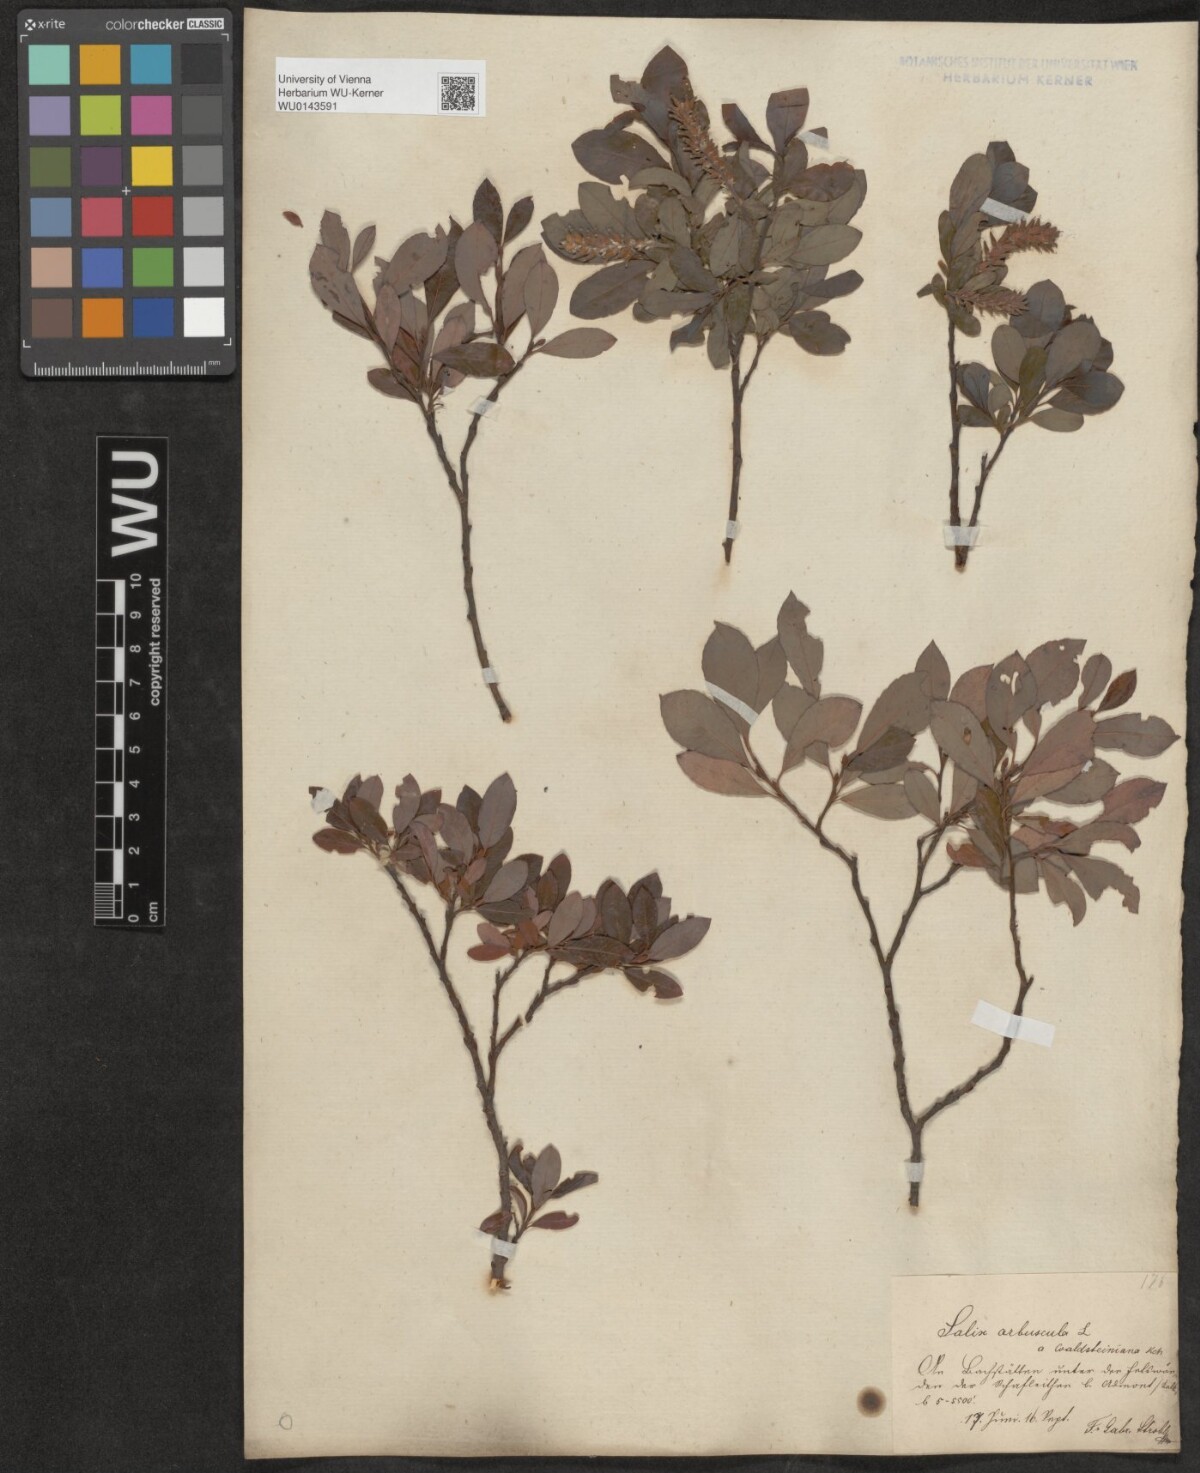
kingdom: Plantae
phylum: Tracheophyta
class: Magnoliopsida
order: Malpighiales
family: Salicaceae
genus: Salix
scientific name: Salix waldsteiniana
